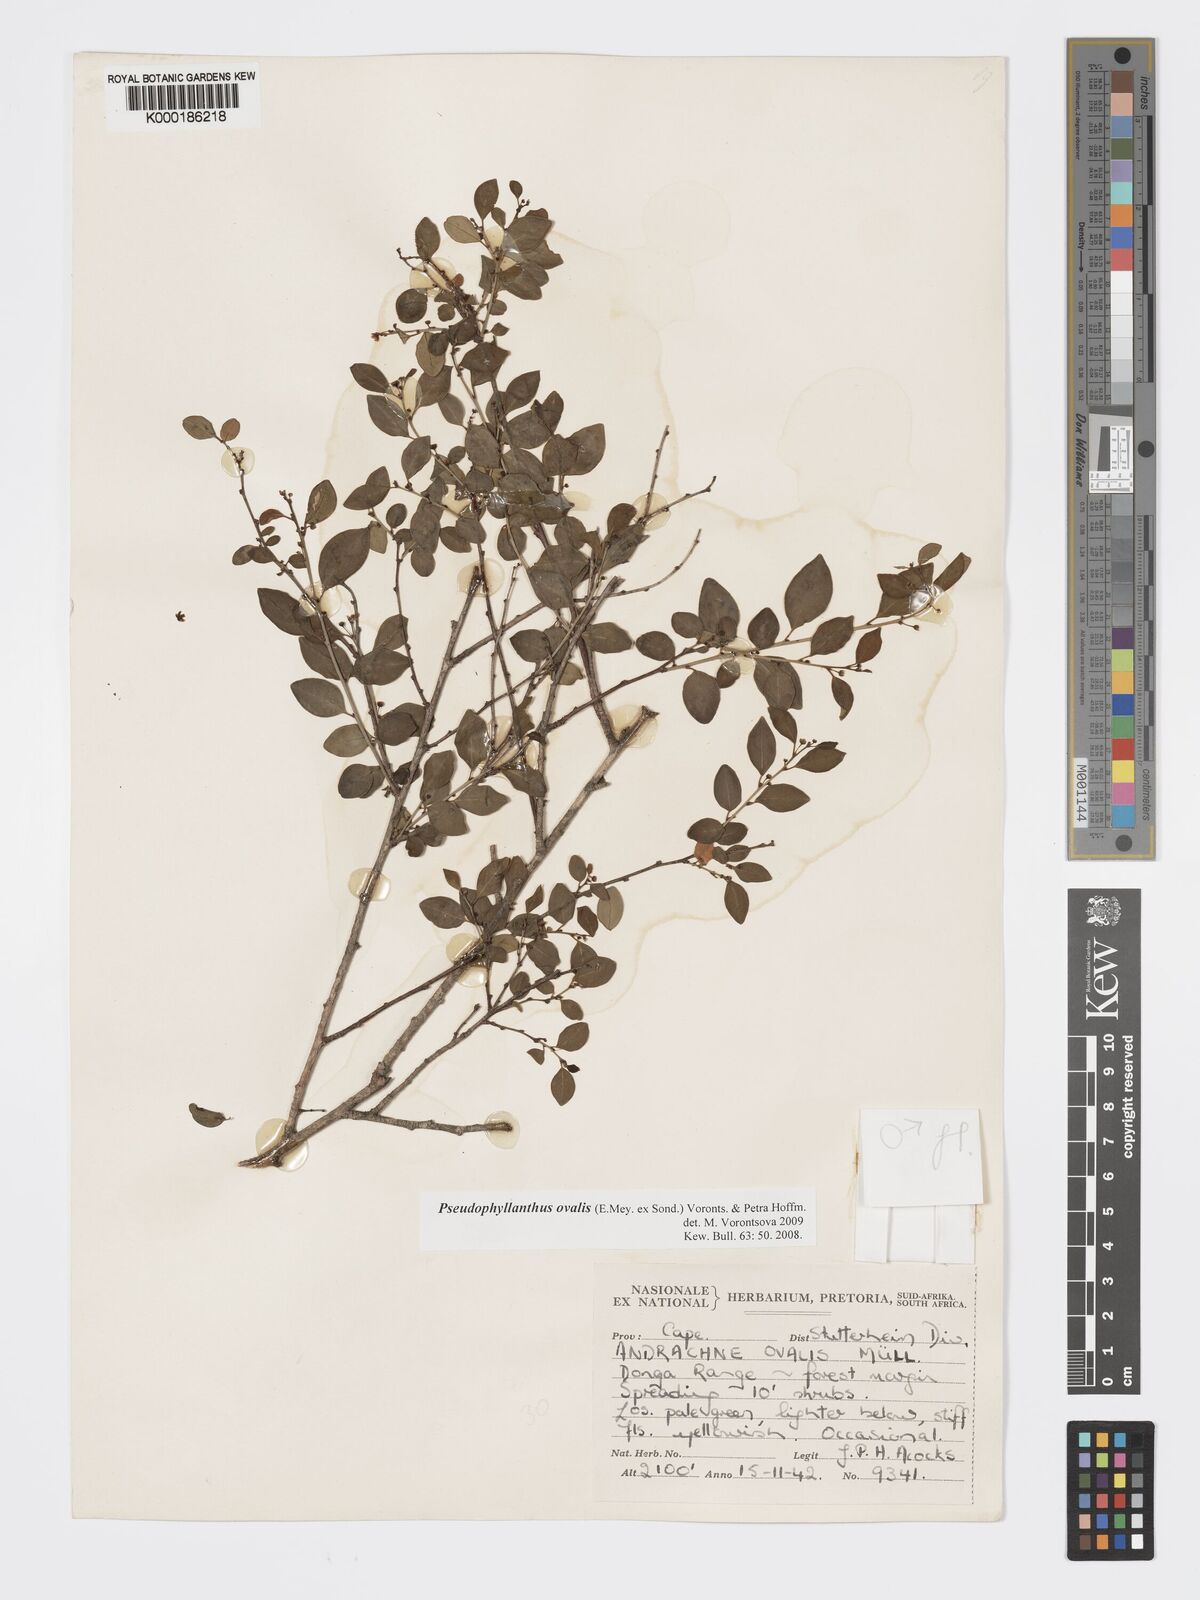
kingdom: Plantae
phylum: Tracheophyta
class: Magnoliopsida
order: Malpighiales
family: Phyllanthaceae
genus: Pseudophyllanthus
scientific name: Pseudophyllanthus ovalis
